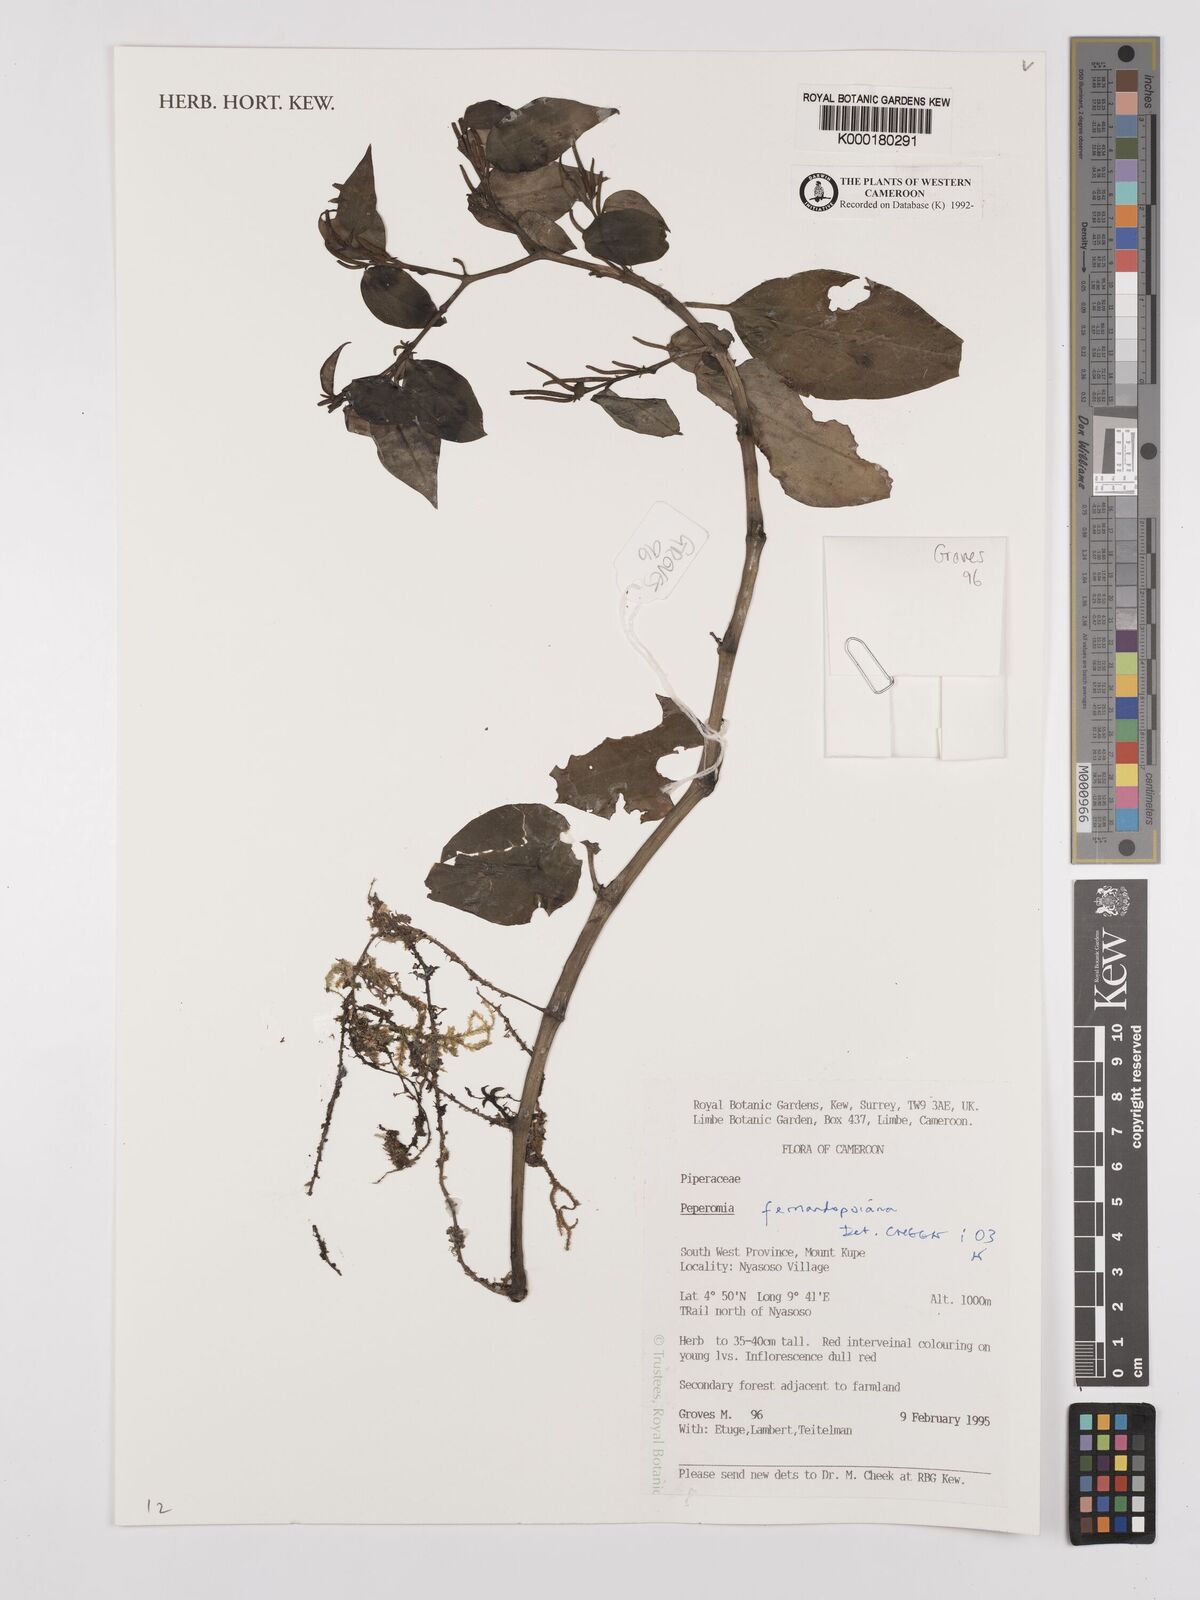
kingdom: Plantae
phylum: Tracheophyta
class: Magnoliopsida
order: Piperales
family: Piperaceae
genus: Peperomia
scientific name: Peperomia fernandopoiana
